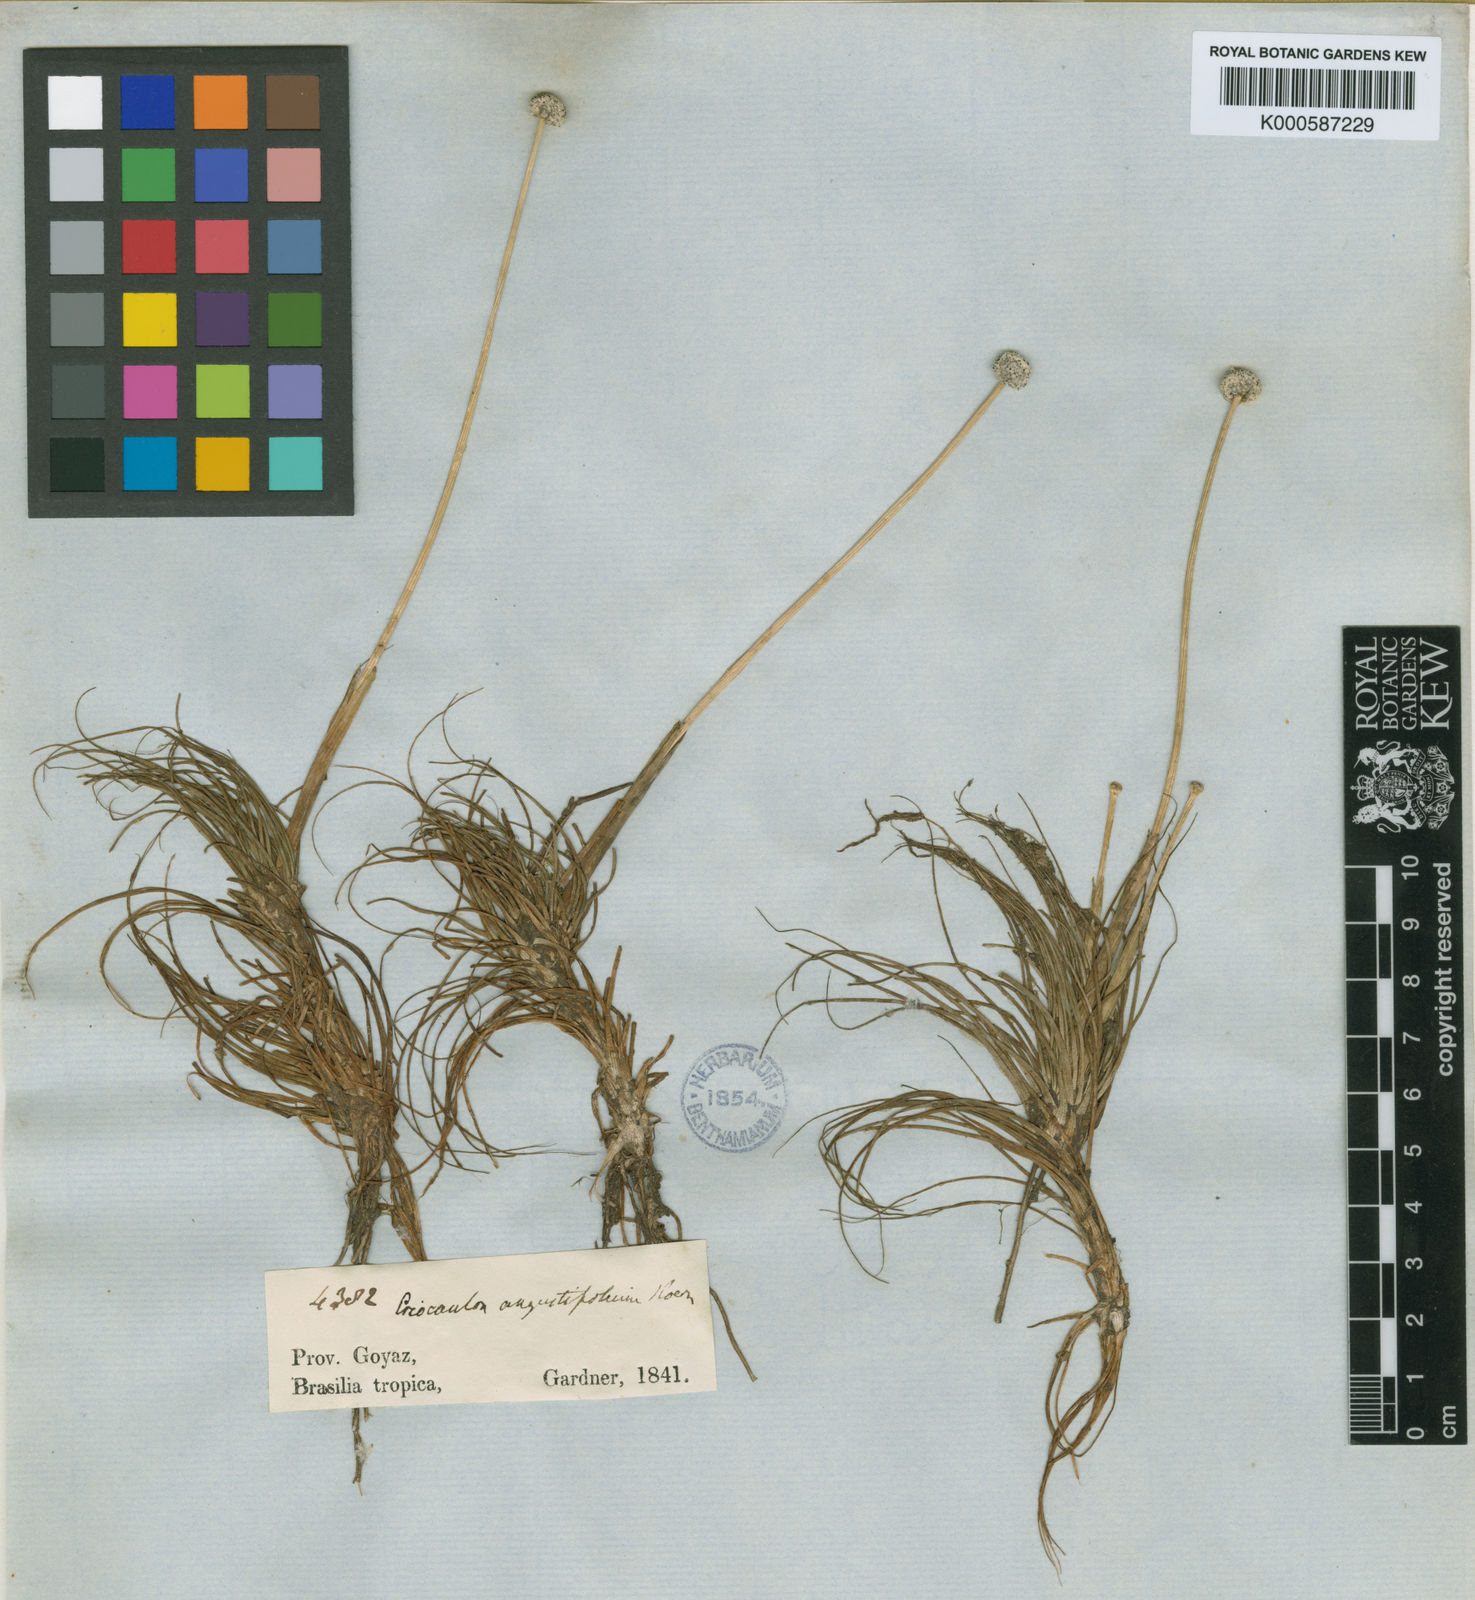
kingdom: Plantae
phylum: Tracheophyta
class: Liliopsida
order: Poales
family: Eriocaulaceae
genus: Eriocaulon
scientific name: Eriocaulon
